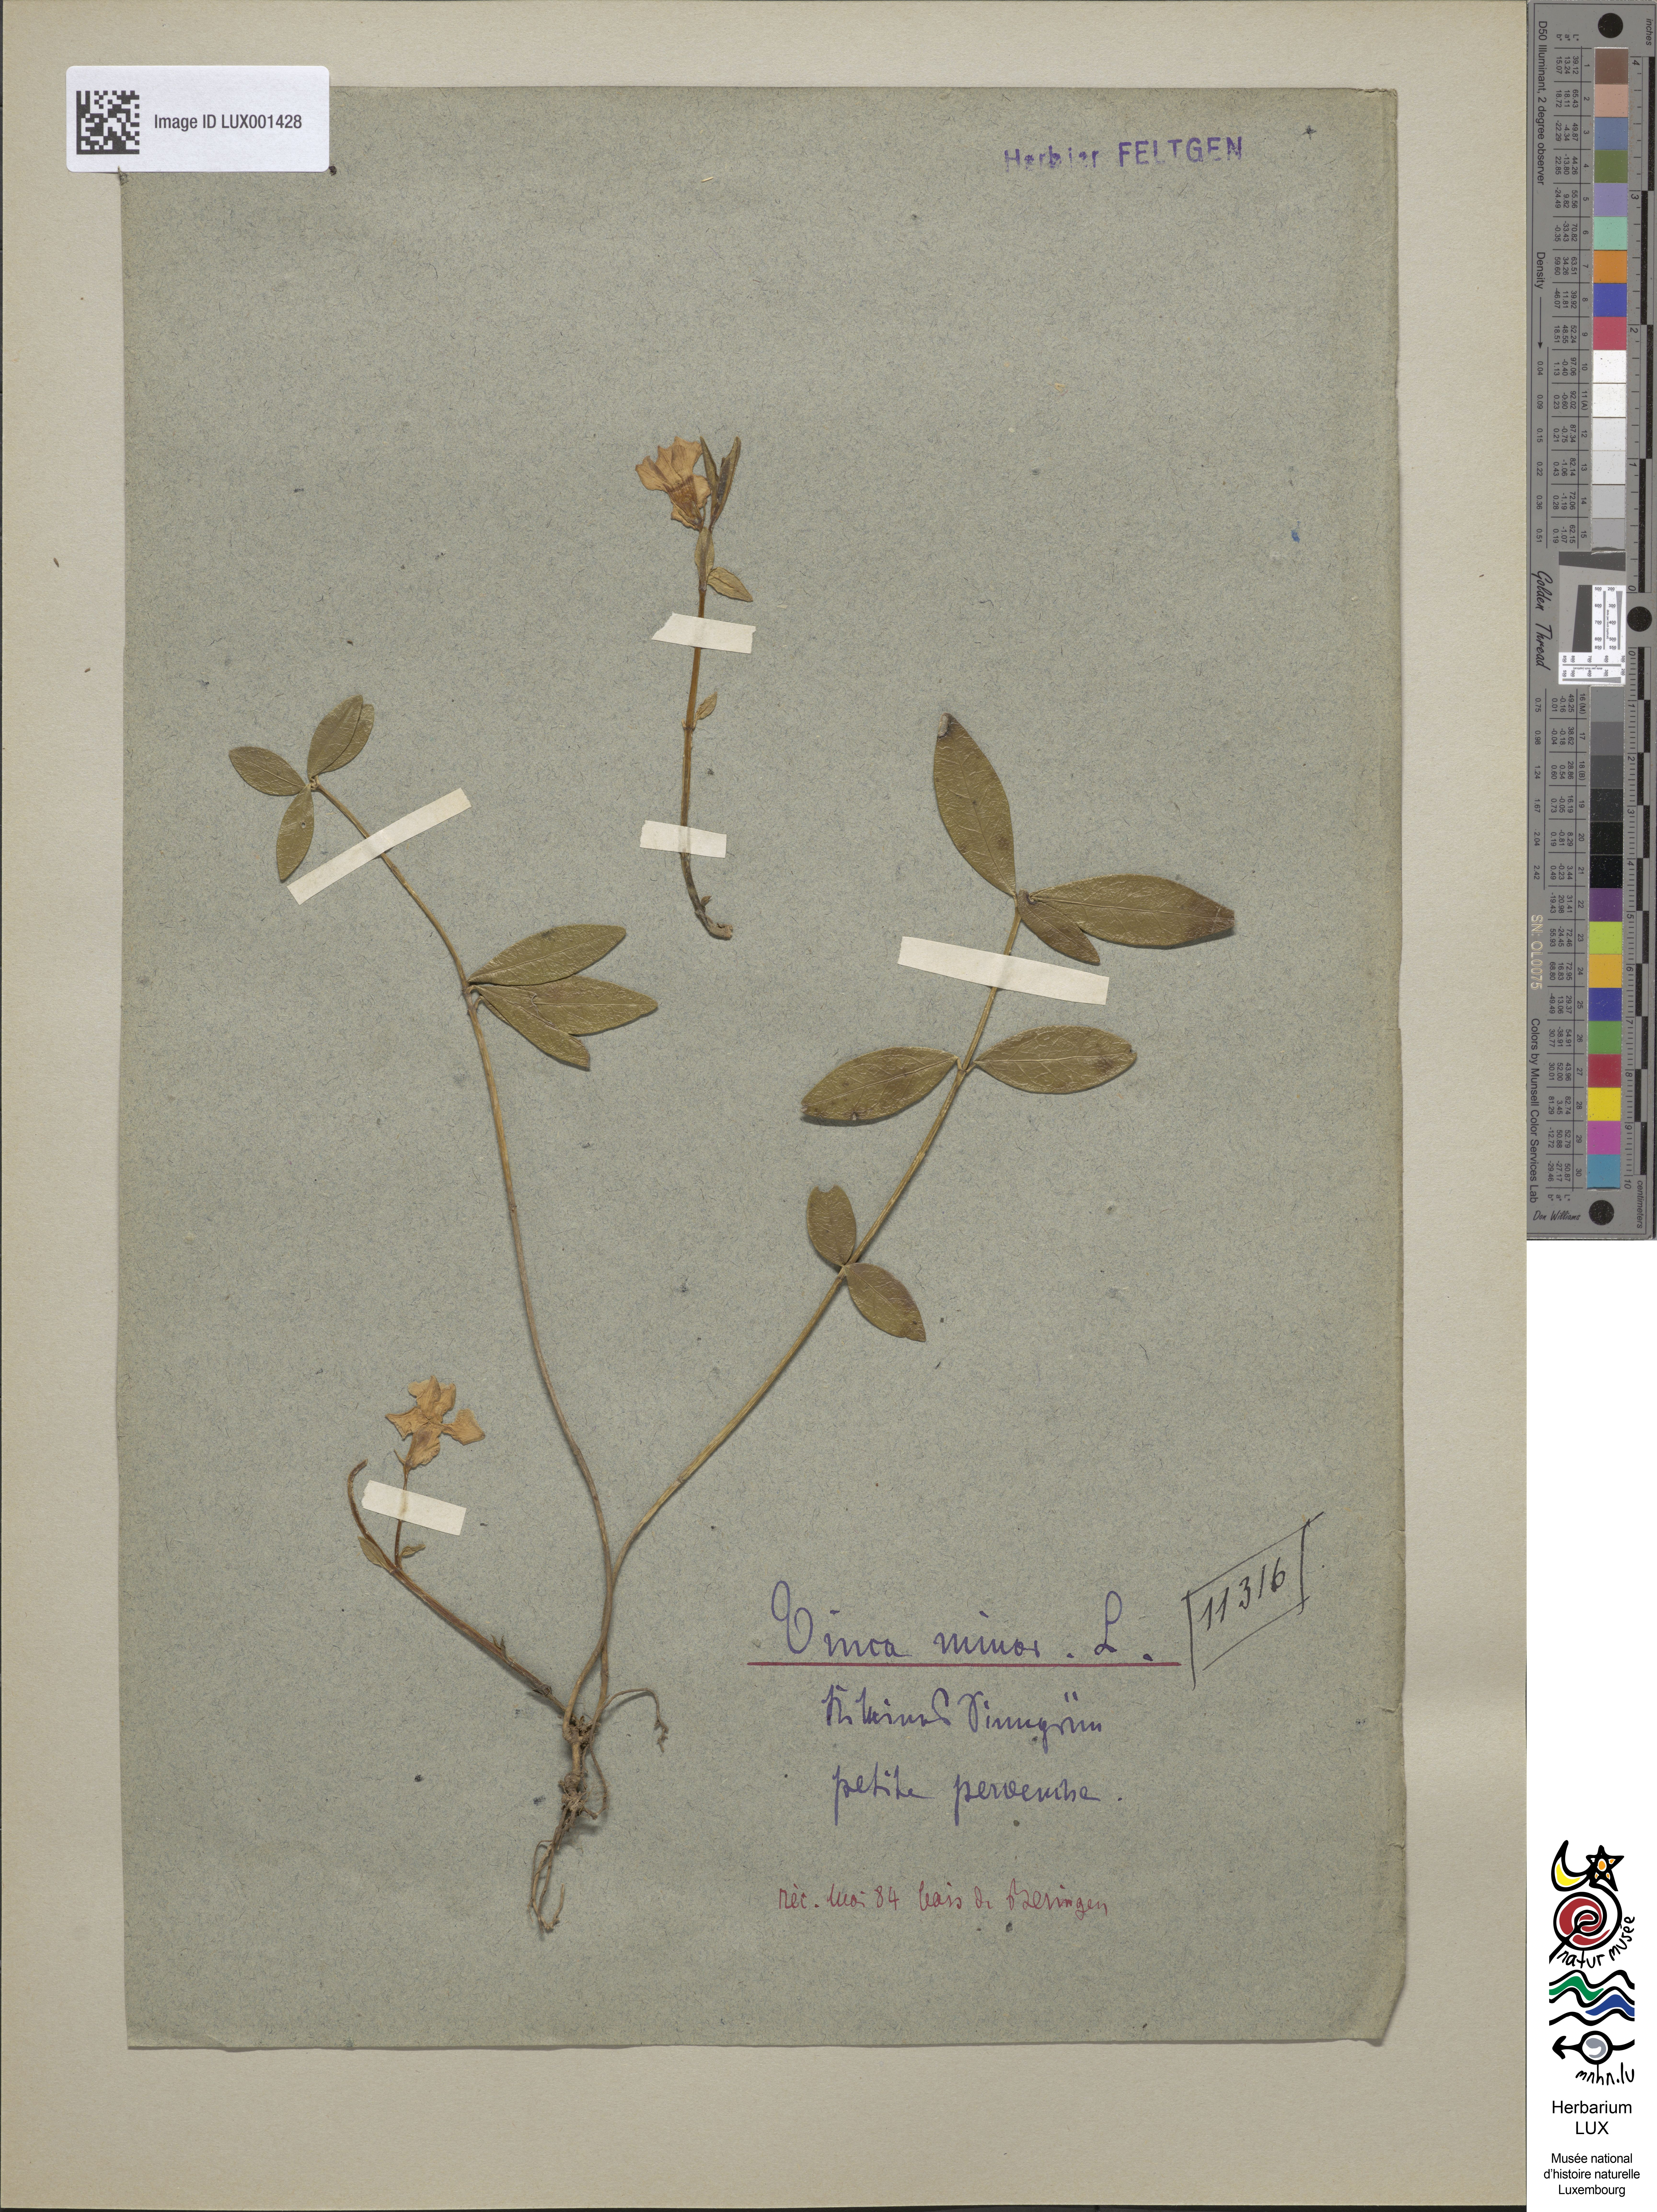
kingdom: Plantae
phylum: Tracheophyta
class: Magnoliopsida
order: Gentianales
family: Apocynaceae
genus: Vinca
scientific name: Vinca minor
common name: Lesser periwinkle
